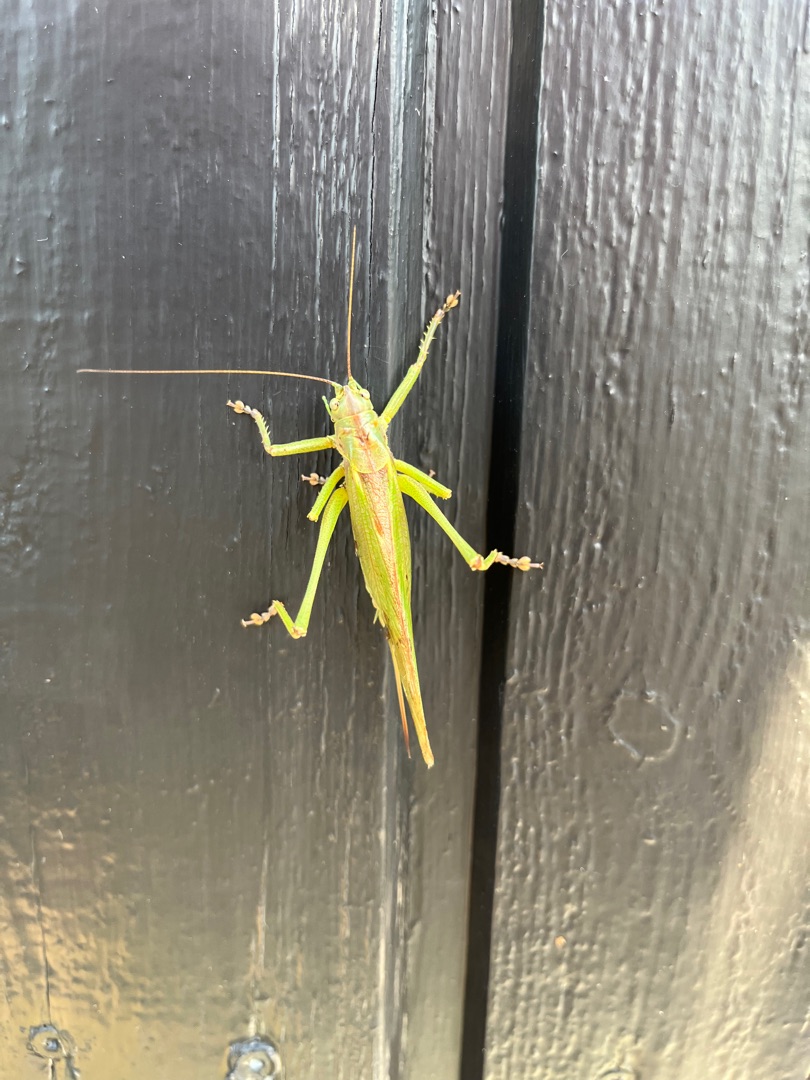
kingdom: Animalia
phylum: Arthropoda
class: Insecta
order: Orthoptera
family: Tettigoniidae
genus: Tettigonia
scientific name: Tettigonia viridissima
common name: Stor grøn løvgræshoppe
